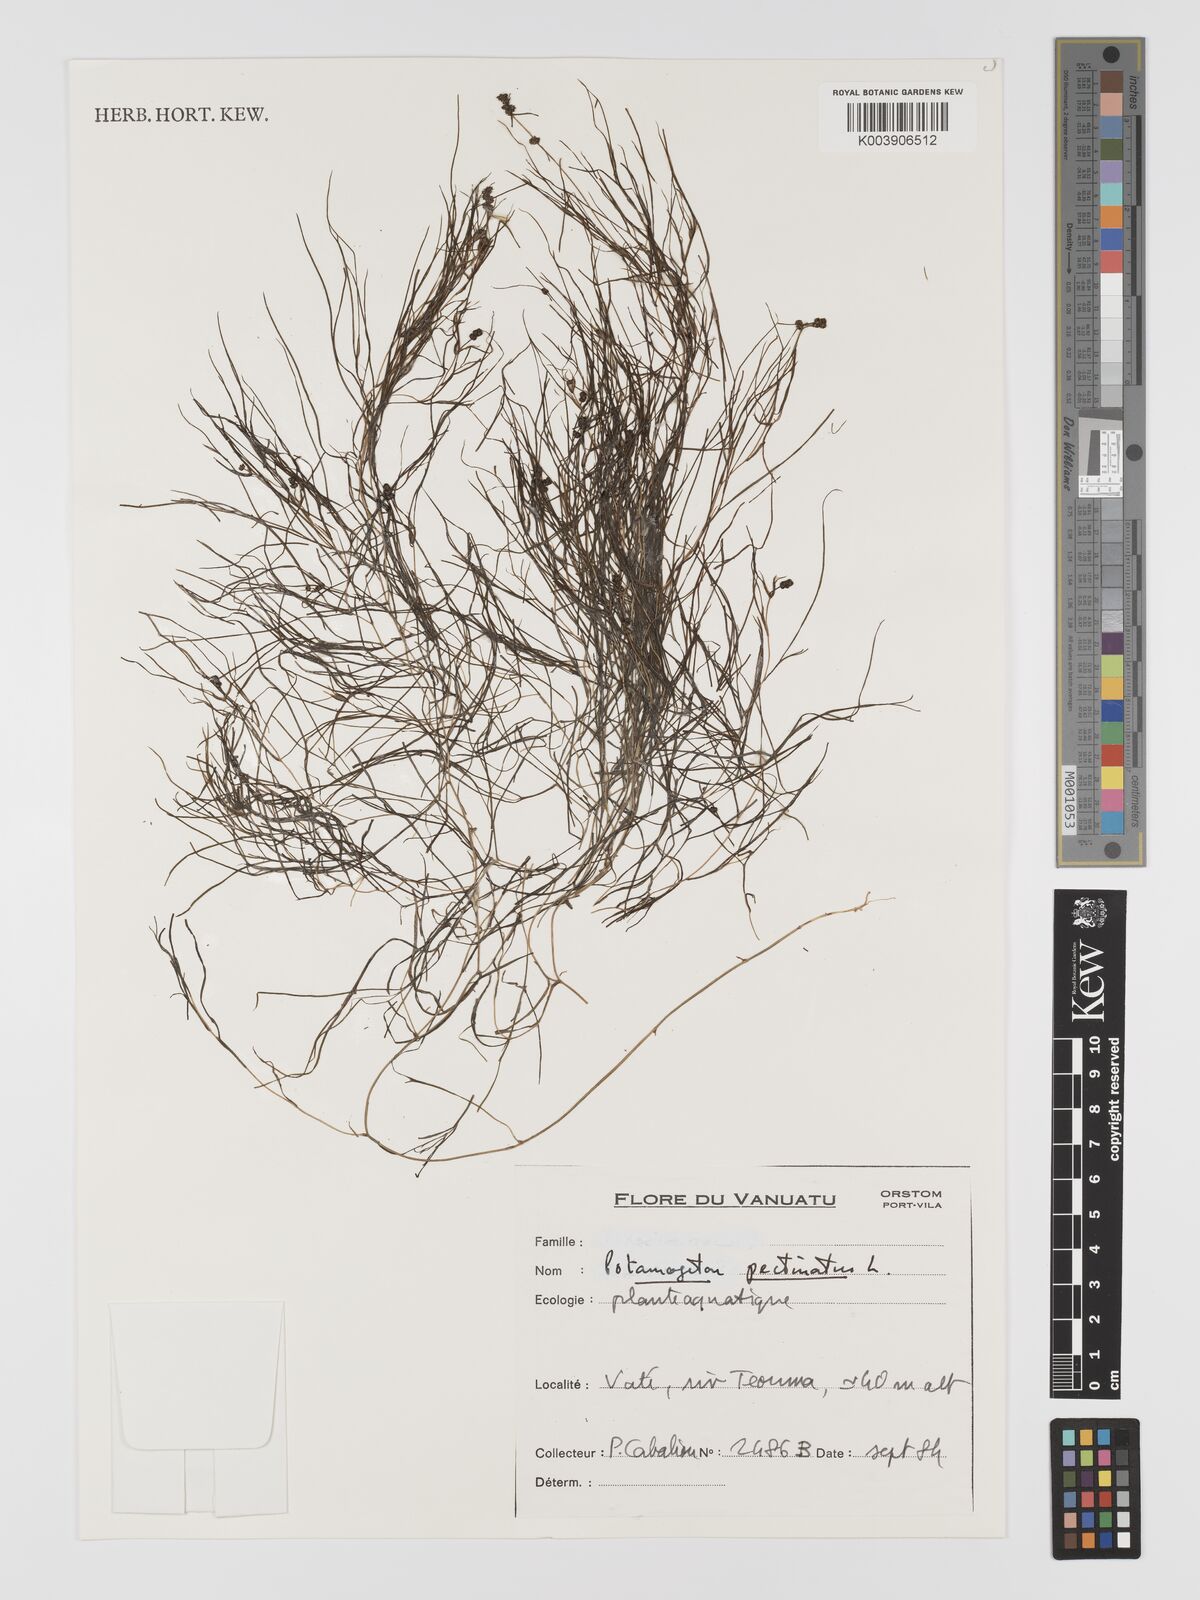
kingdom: Plantae
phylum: Tracheophyta
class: Liliopsida
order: Alismatales
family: Potamogetonaceae
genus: Stuckenia
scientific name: Stuckenia pectinata
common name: Sago pondweed
